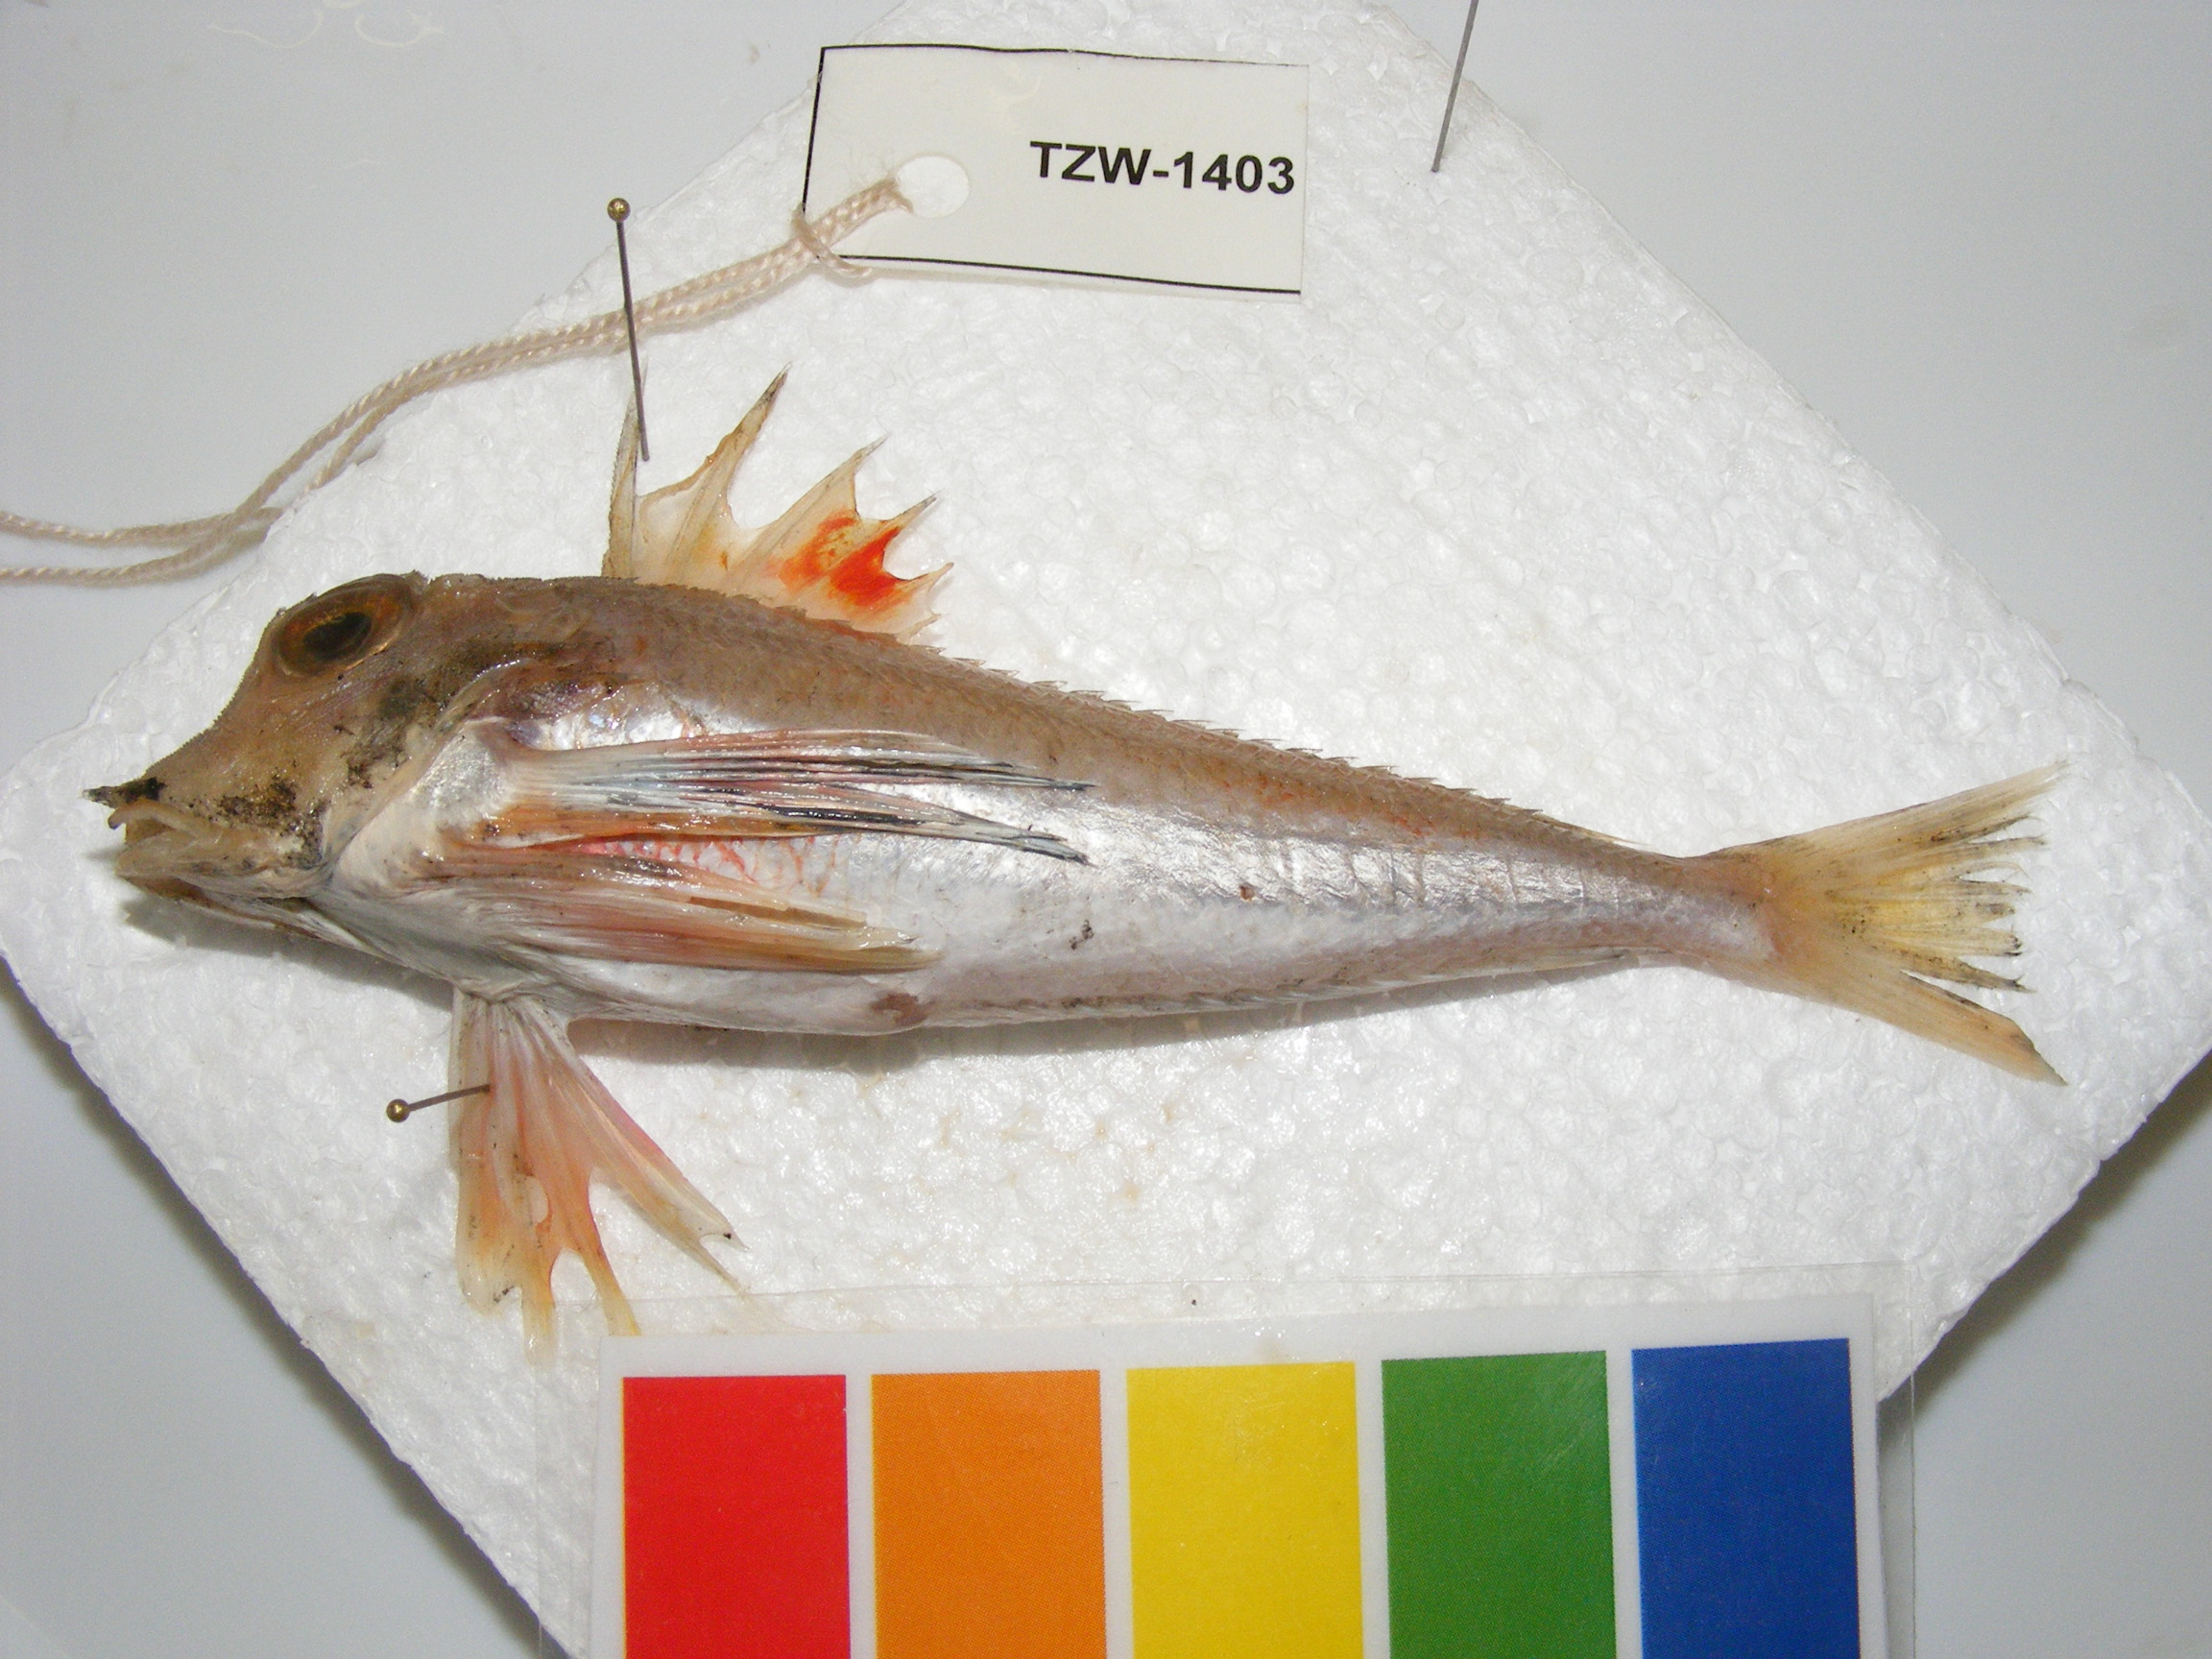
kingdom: Animalia
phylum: Chordata
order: Scorpaeniformes
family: Triglidae
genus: Lepidotrigla
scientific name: Lepidotrigla faurei
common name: Prickly gurnard
